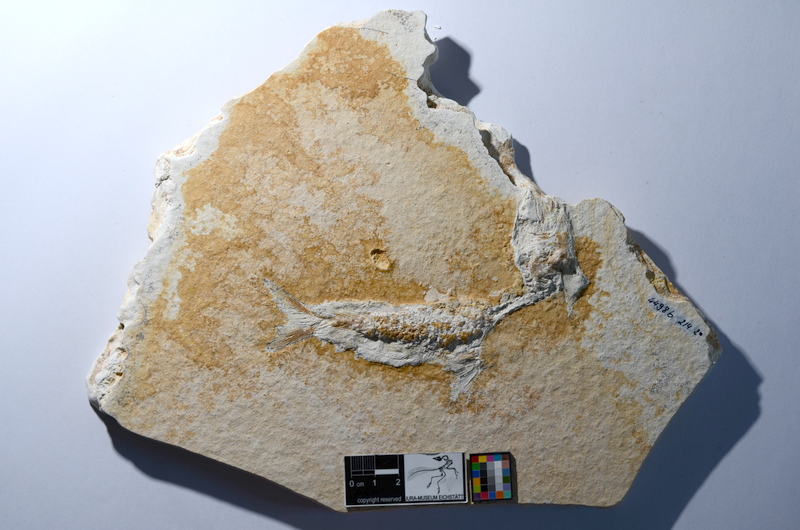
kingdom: Animalia
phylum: Chordata
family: Ascalaboidae
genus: Tharsis
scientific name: Tharsis dubius
